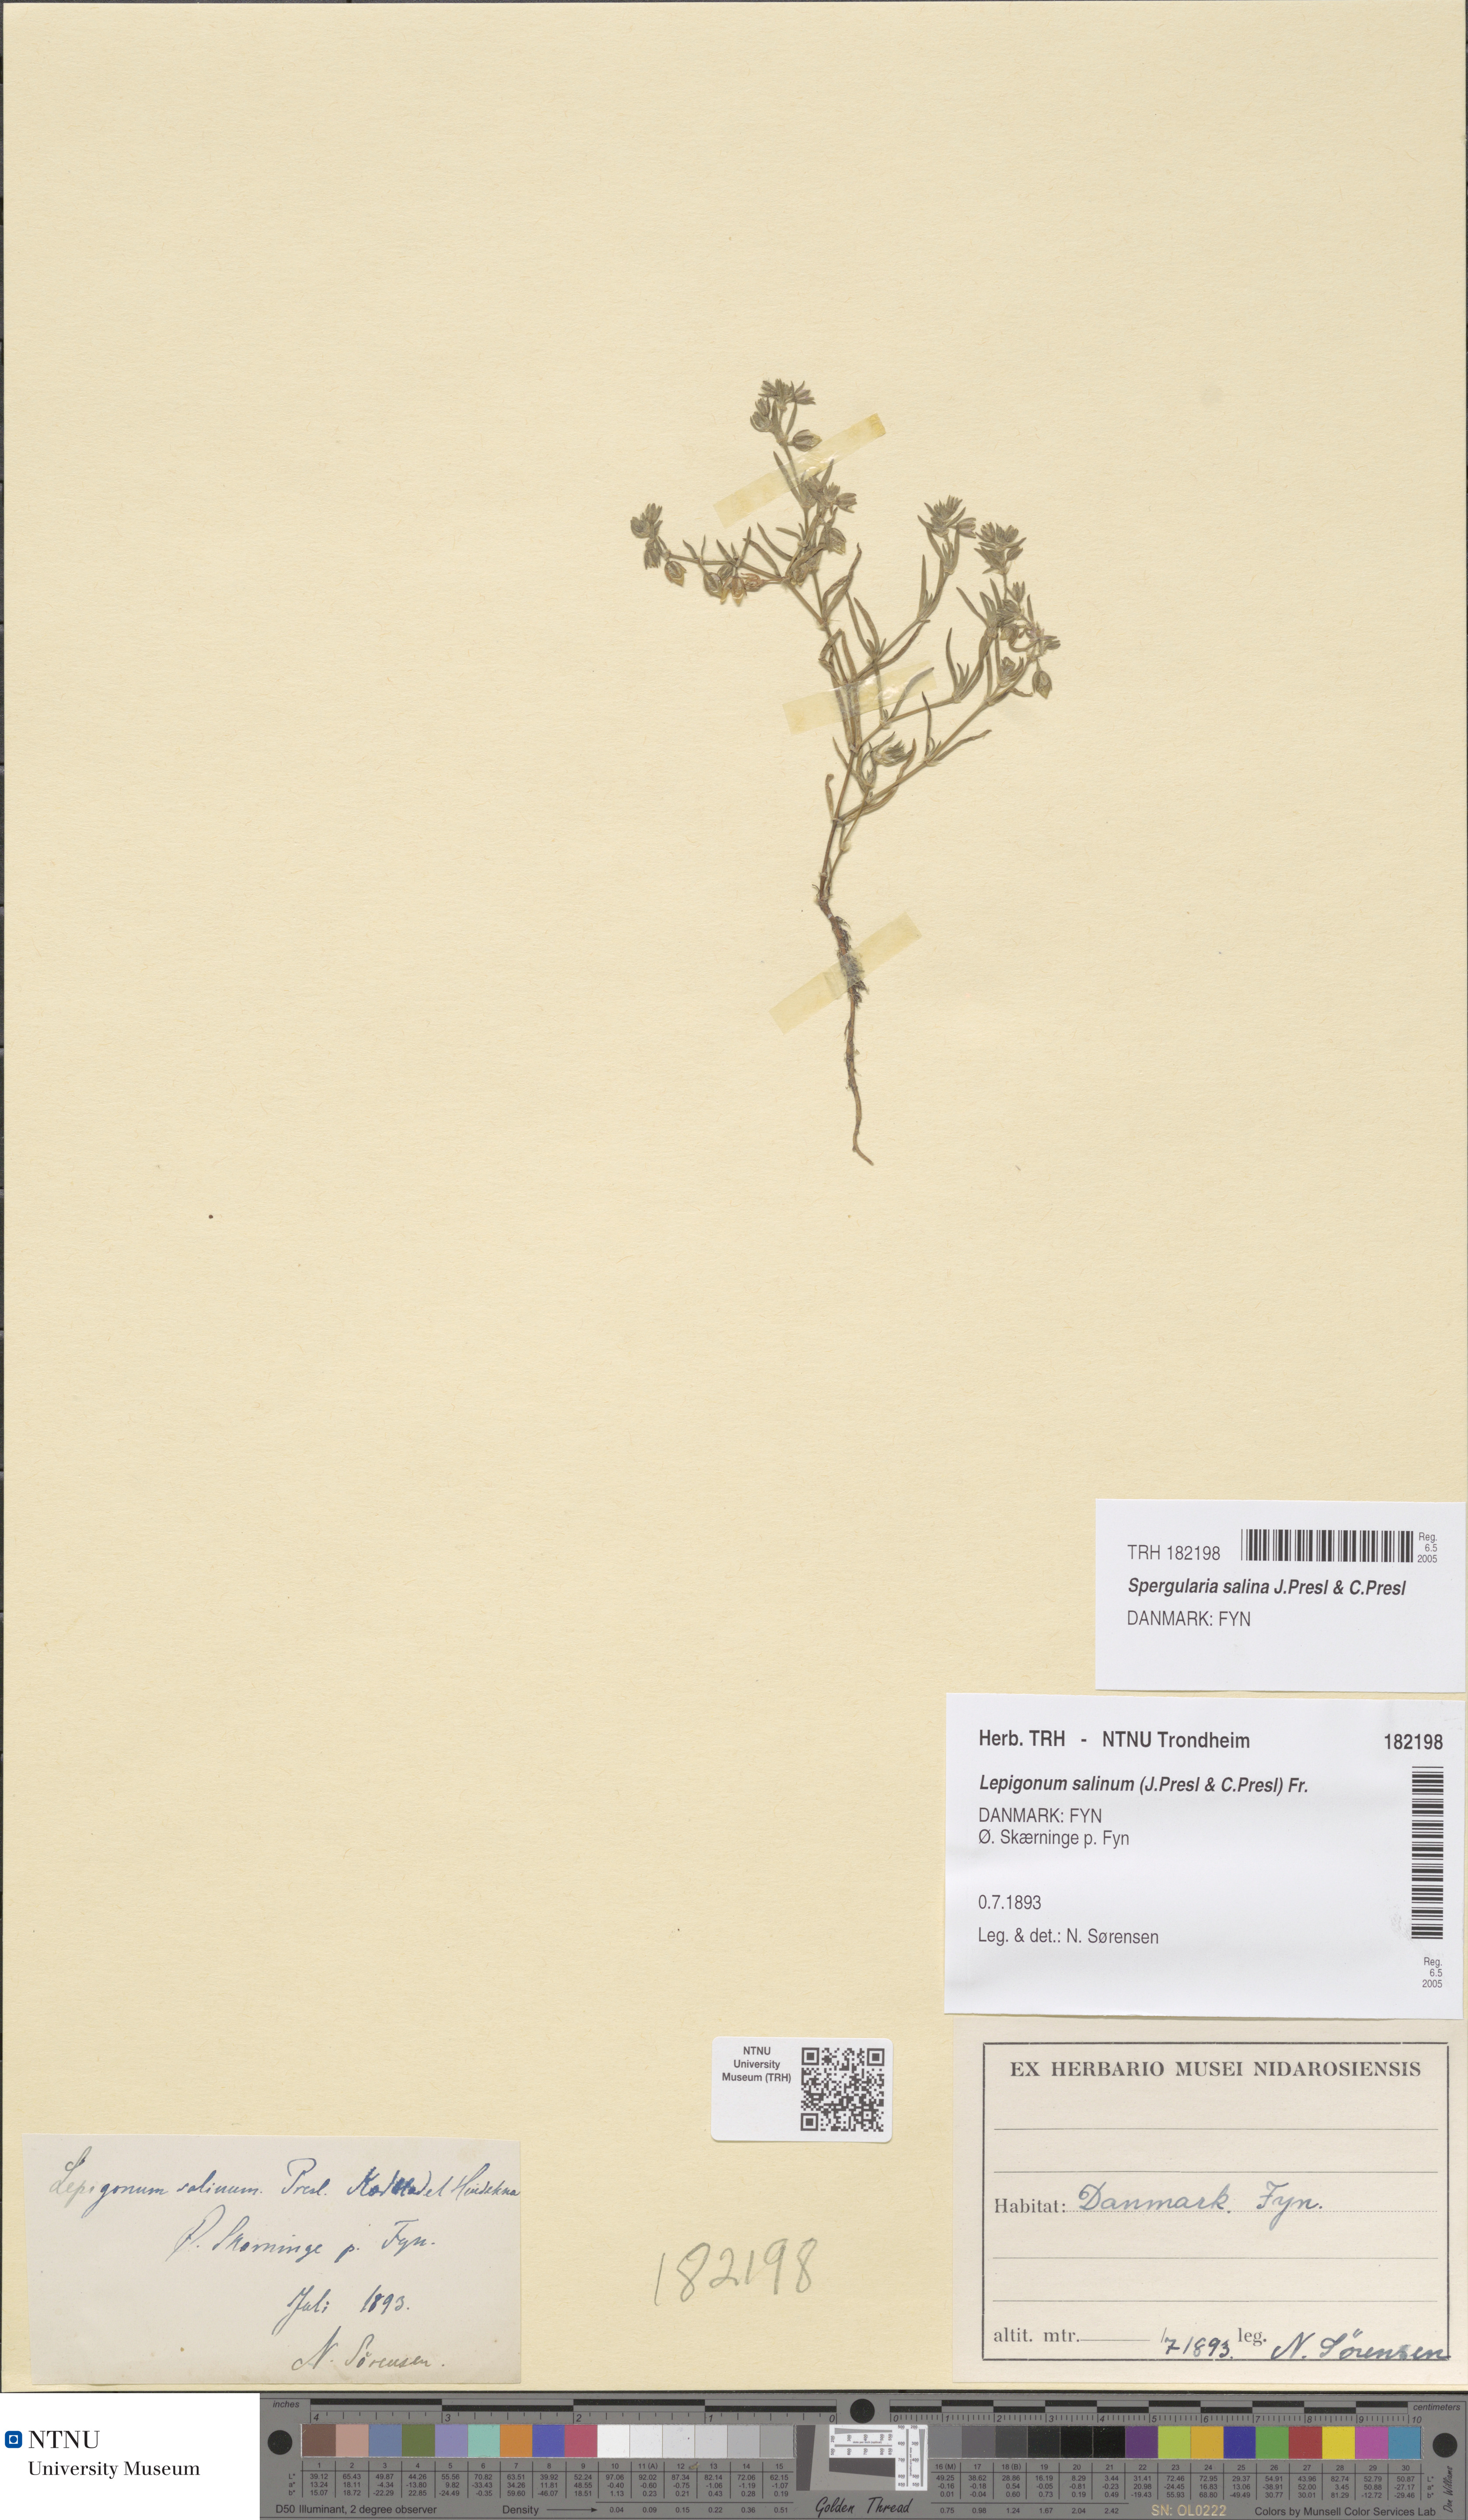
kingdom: Plantae
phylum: Tracheophyta
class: Magnoliopsida
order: Caryophyllales
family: Caryophyllaceae
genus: Spergularia
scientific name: Spergularia marina
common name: Lesser sea-spurrey
